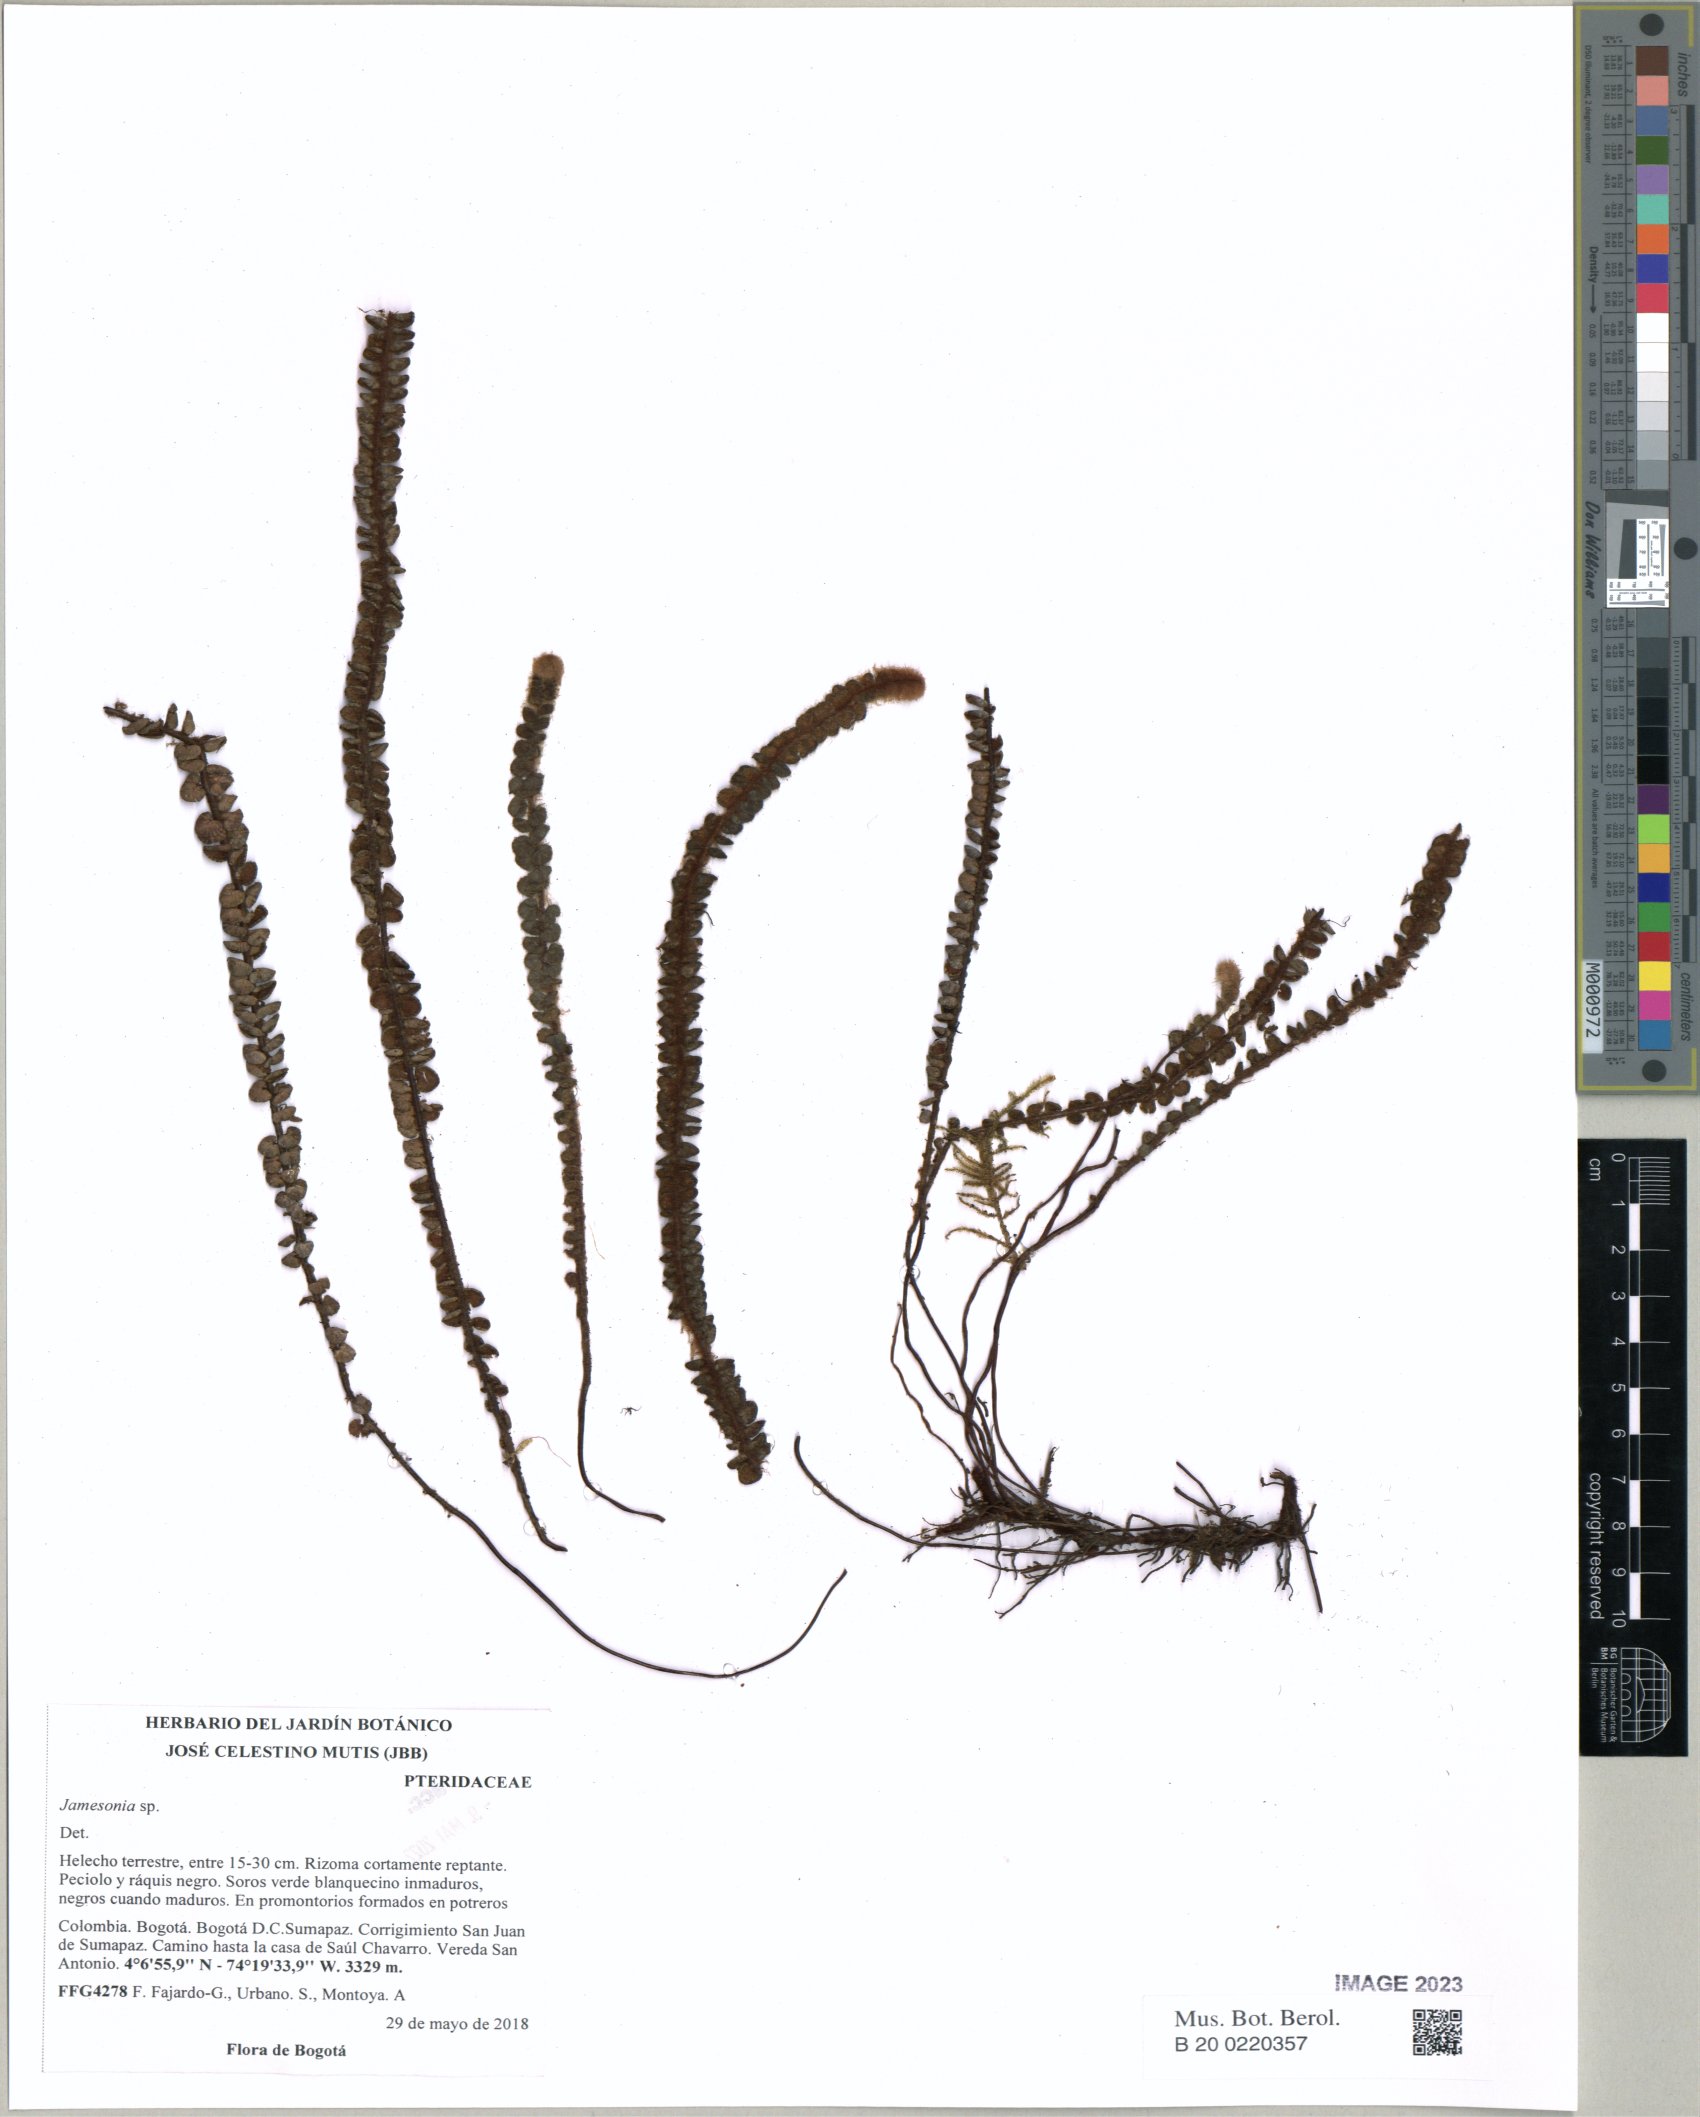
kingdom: Plantae
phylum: Tracheophyta
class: Polypodiopsida
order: Polypodiales
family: Pteridaceae
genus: Jamesonia
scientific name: Jamesonia
